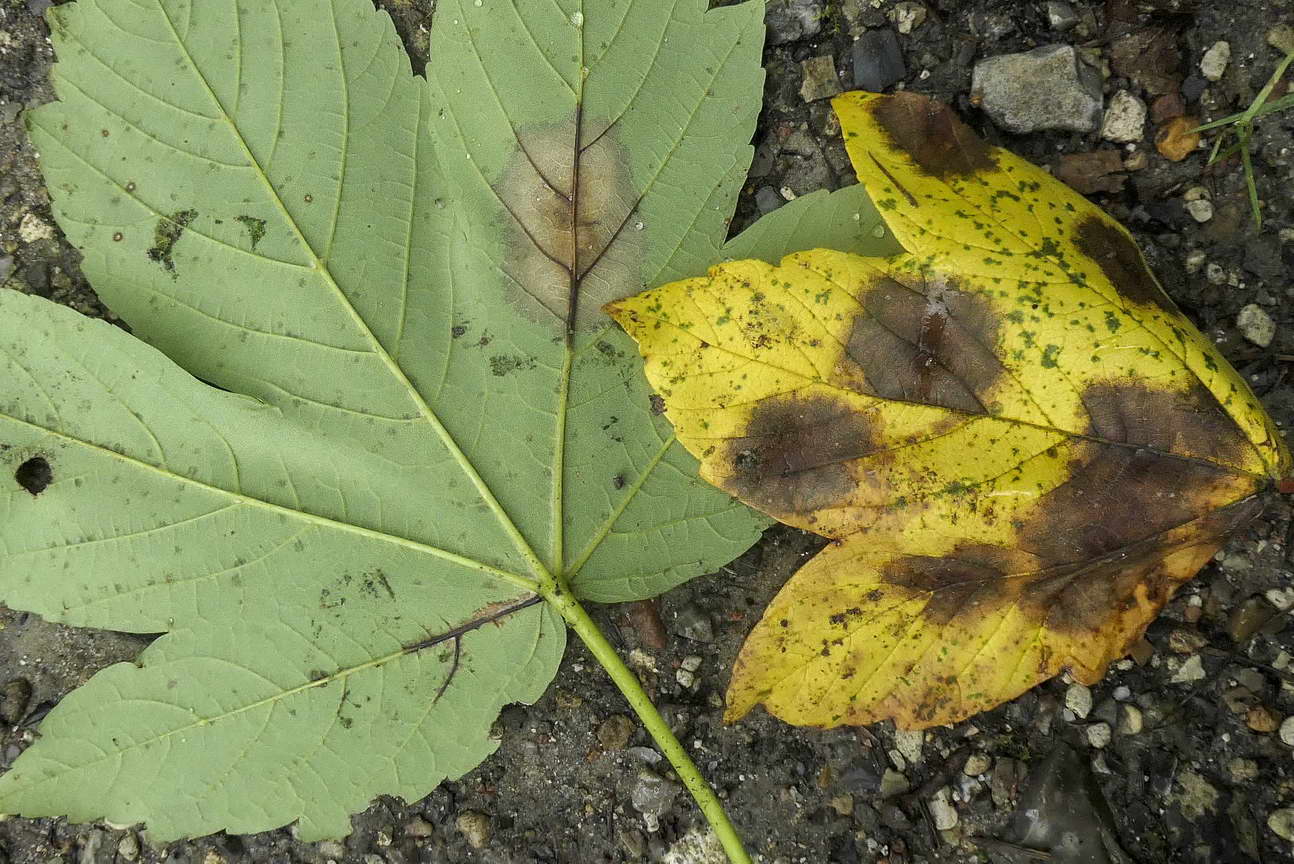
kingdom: Fungi
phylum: Ascomycota
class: Sordariomycetes
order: Diaporthales
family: Gnomoniaceae
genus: Pleuroceras
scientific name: Pleuroceras pseudoplatani
